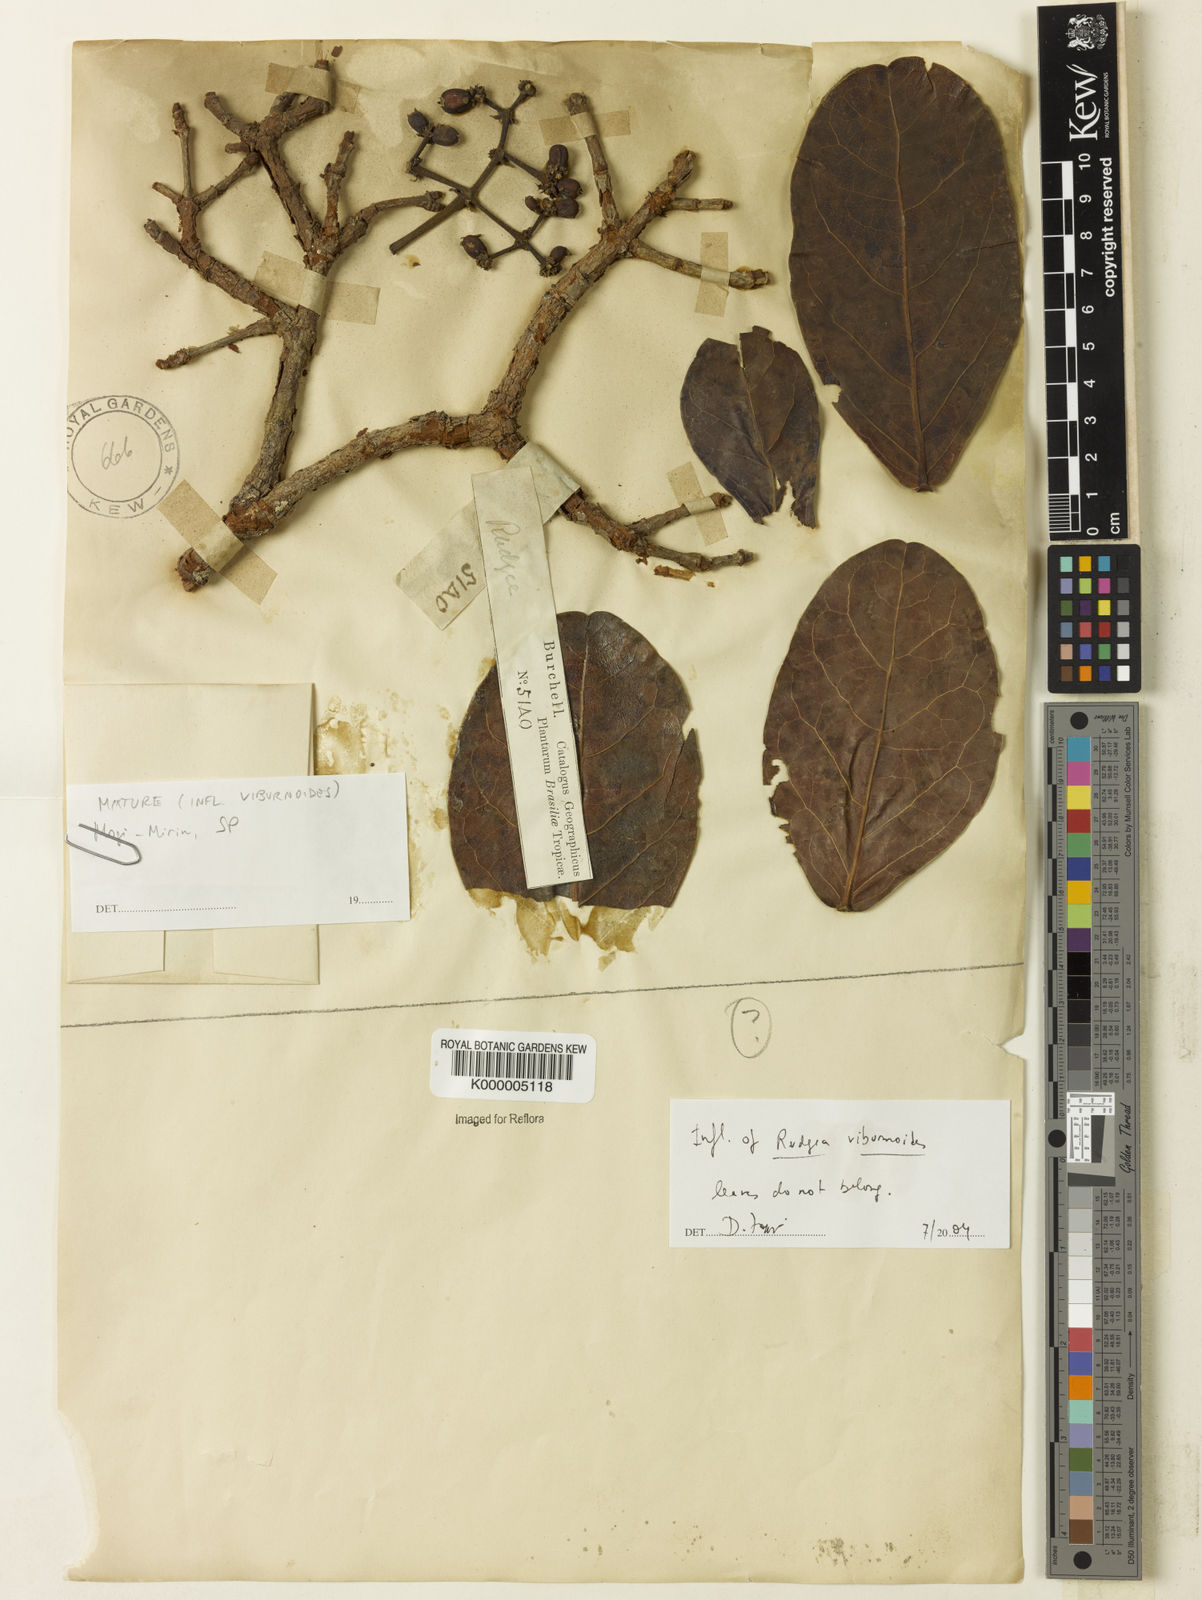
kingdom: Plantae
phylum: Tracheophyta
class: Magnoliopsida
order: Gentianales
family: Rubiaceae
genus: Rudgea
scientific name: Rudgea viburnoides
